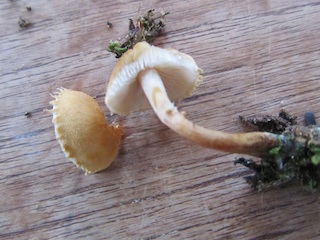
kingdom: Fungi
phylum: Basidiomycota
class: Agaricomycetes
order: Agaricales
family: Tricholomataceae
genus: Cystoderma
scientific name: Cystoderma amianthinum
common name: okkergul grynhat
